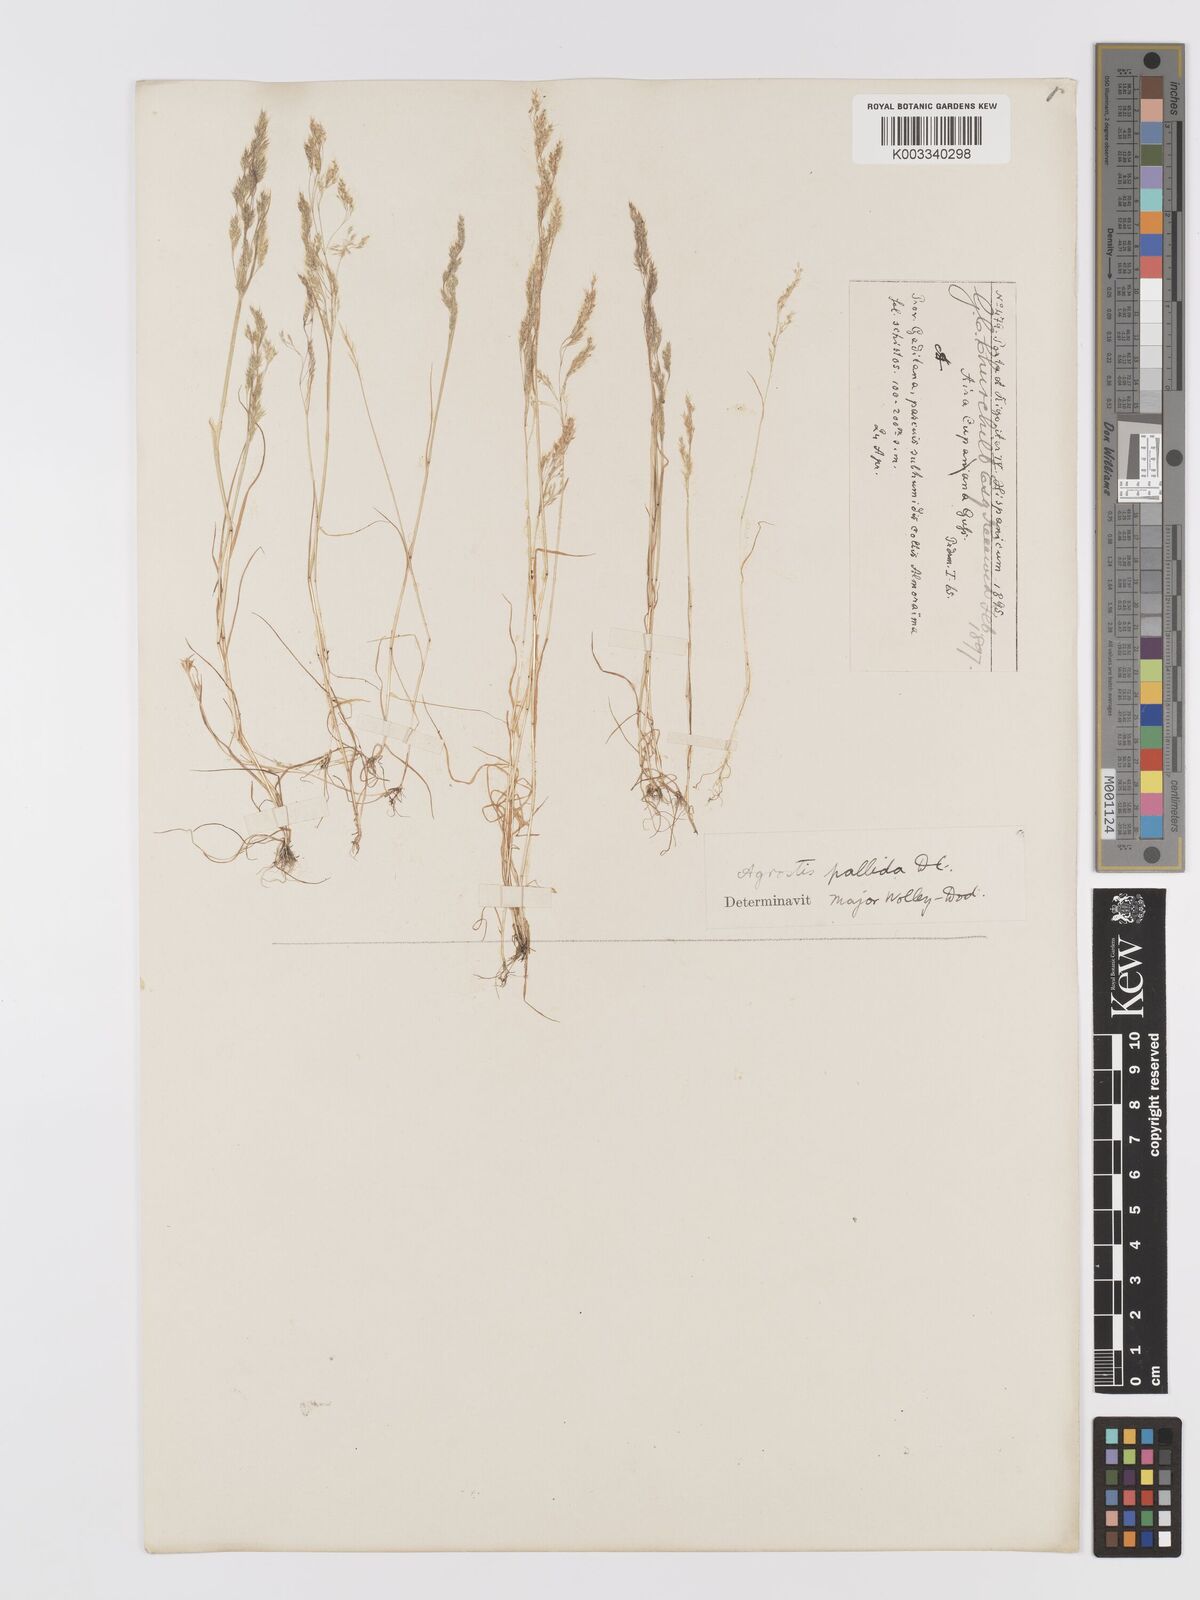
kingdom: Plantae
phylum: Tracheophyta
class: Liliopsida
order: Poales
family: Poaceae
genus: Agrostis
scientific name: Agrostis pourretii
